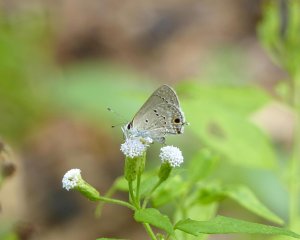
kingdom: Animalia
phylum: Arthropoda
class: Insecta
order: Lepidoptera
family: Lycaenidae
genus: Callicista
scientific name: Callicista columella
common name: Mallow Scrub-Hairstreak
